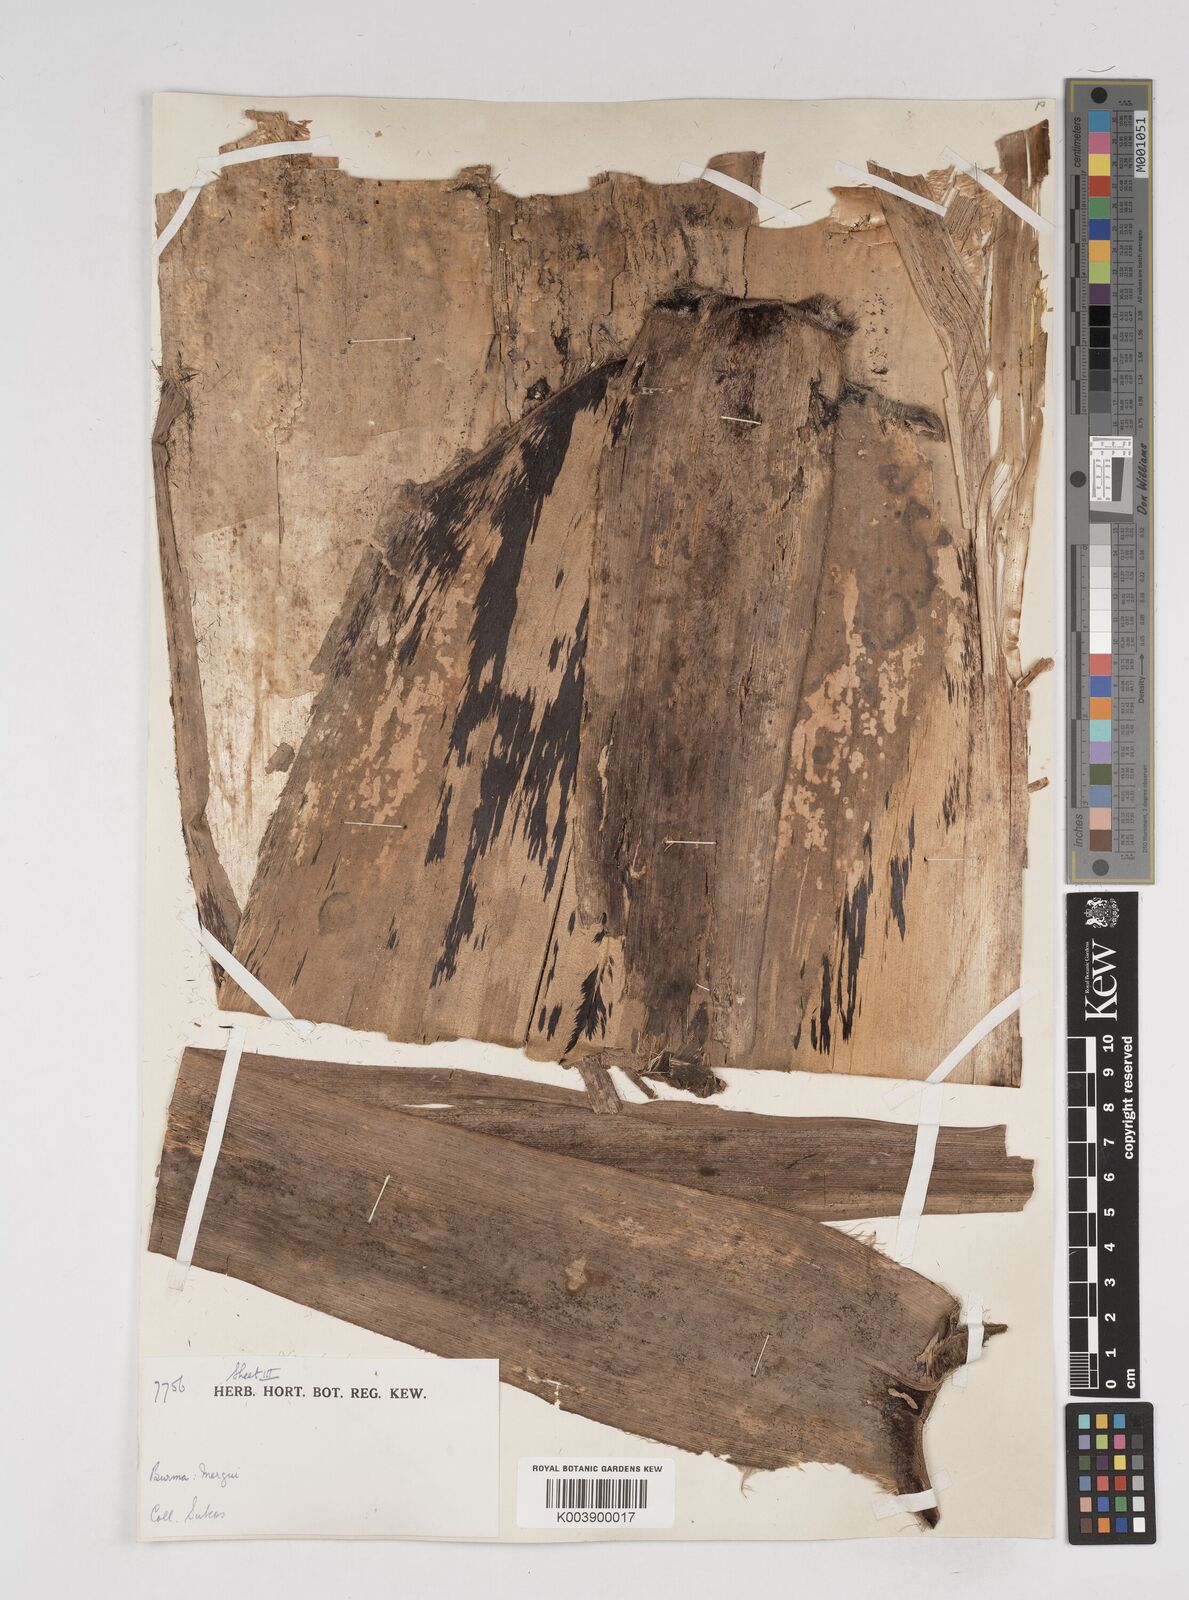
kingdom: Plantae
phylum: Tracheophyta
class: Liliopsida
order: Poales
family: Poaceae
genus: Gigantochloa
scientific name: Gigantochloa
